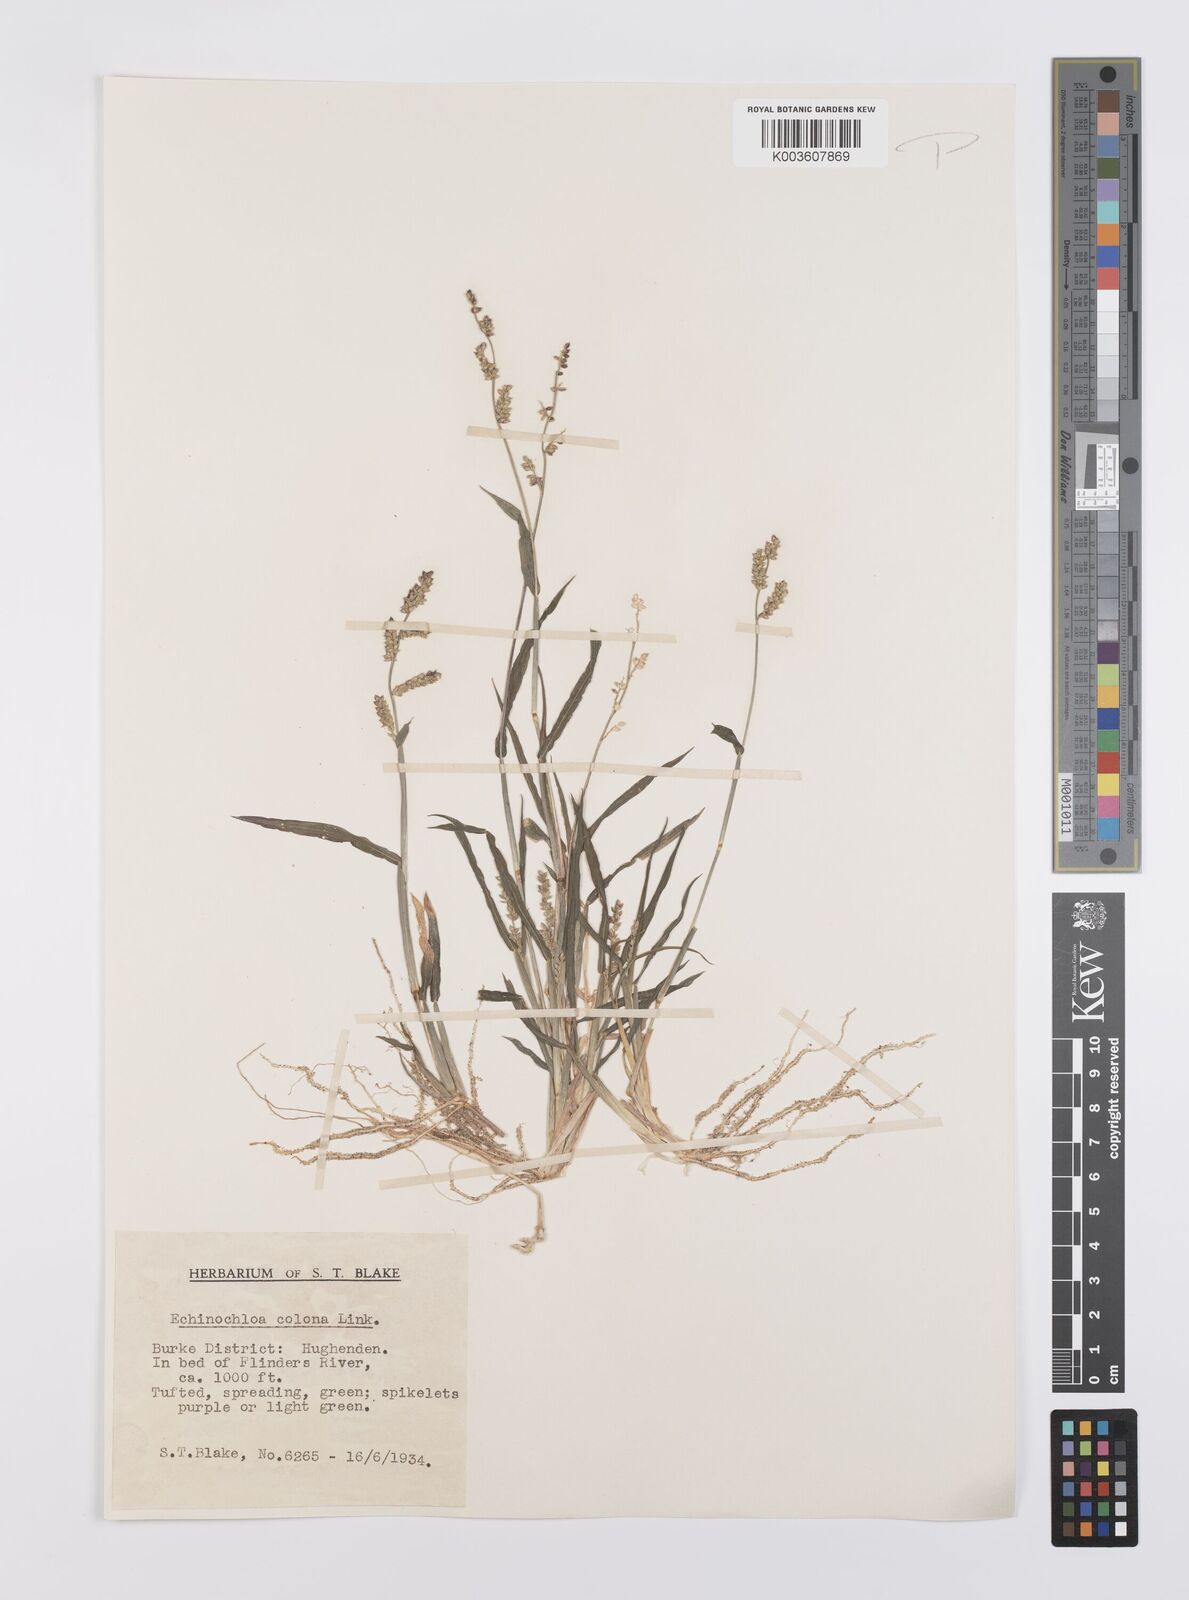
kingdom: Plantae
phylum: Tracheophyta
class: Liliopsida
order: Poales
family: Poaceae
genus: Echinochloa
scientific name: Echinochloa colonum
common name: Jungle rice
